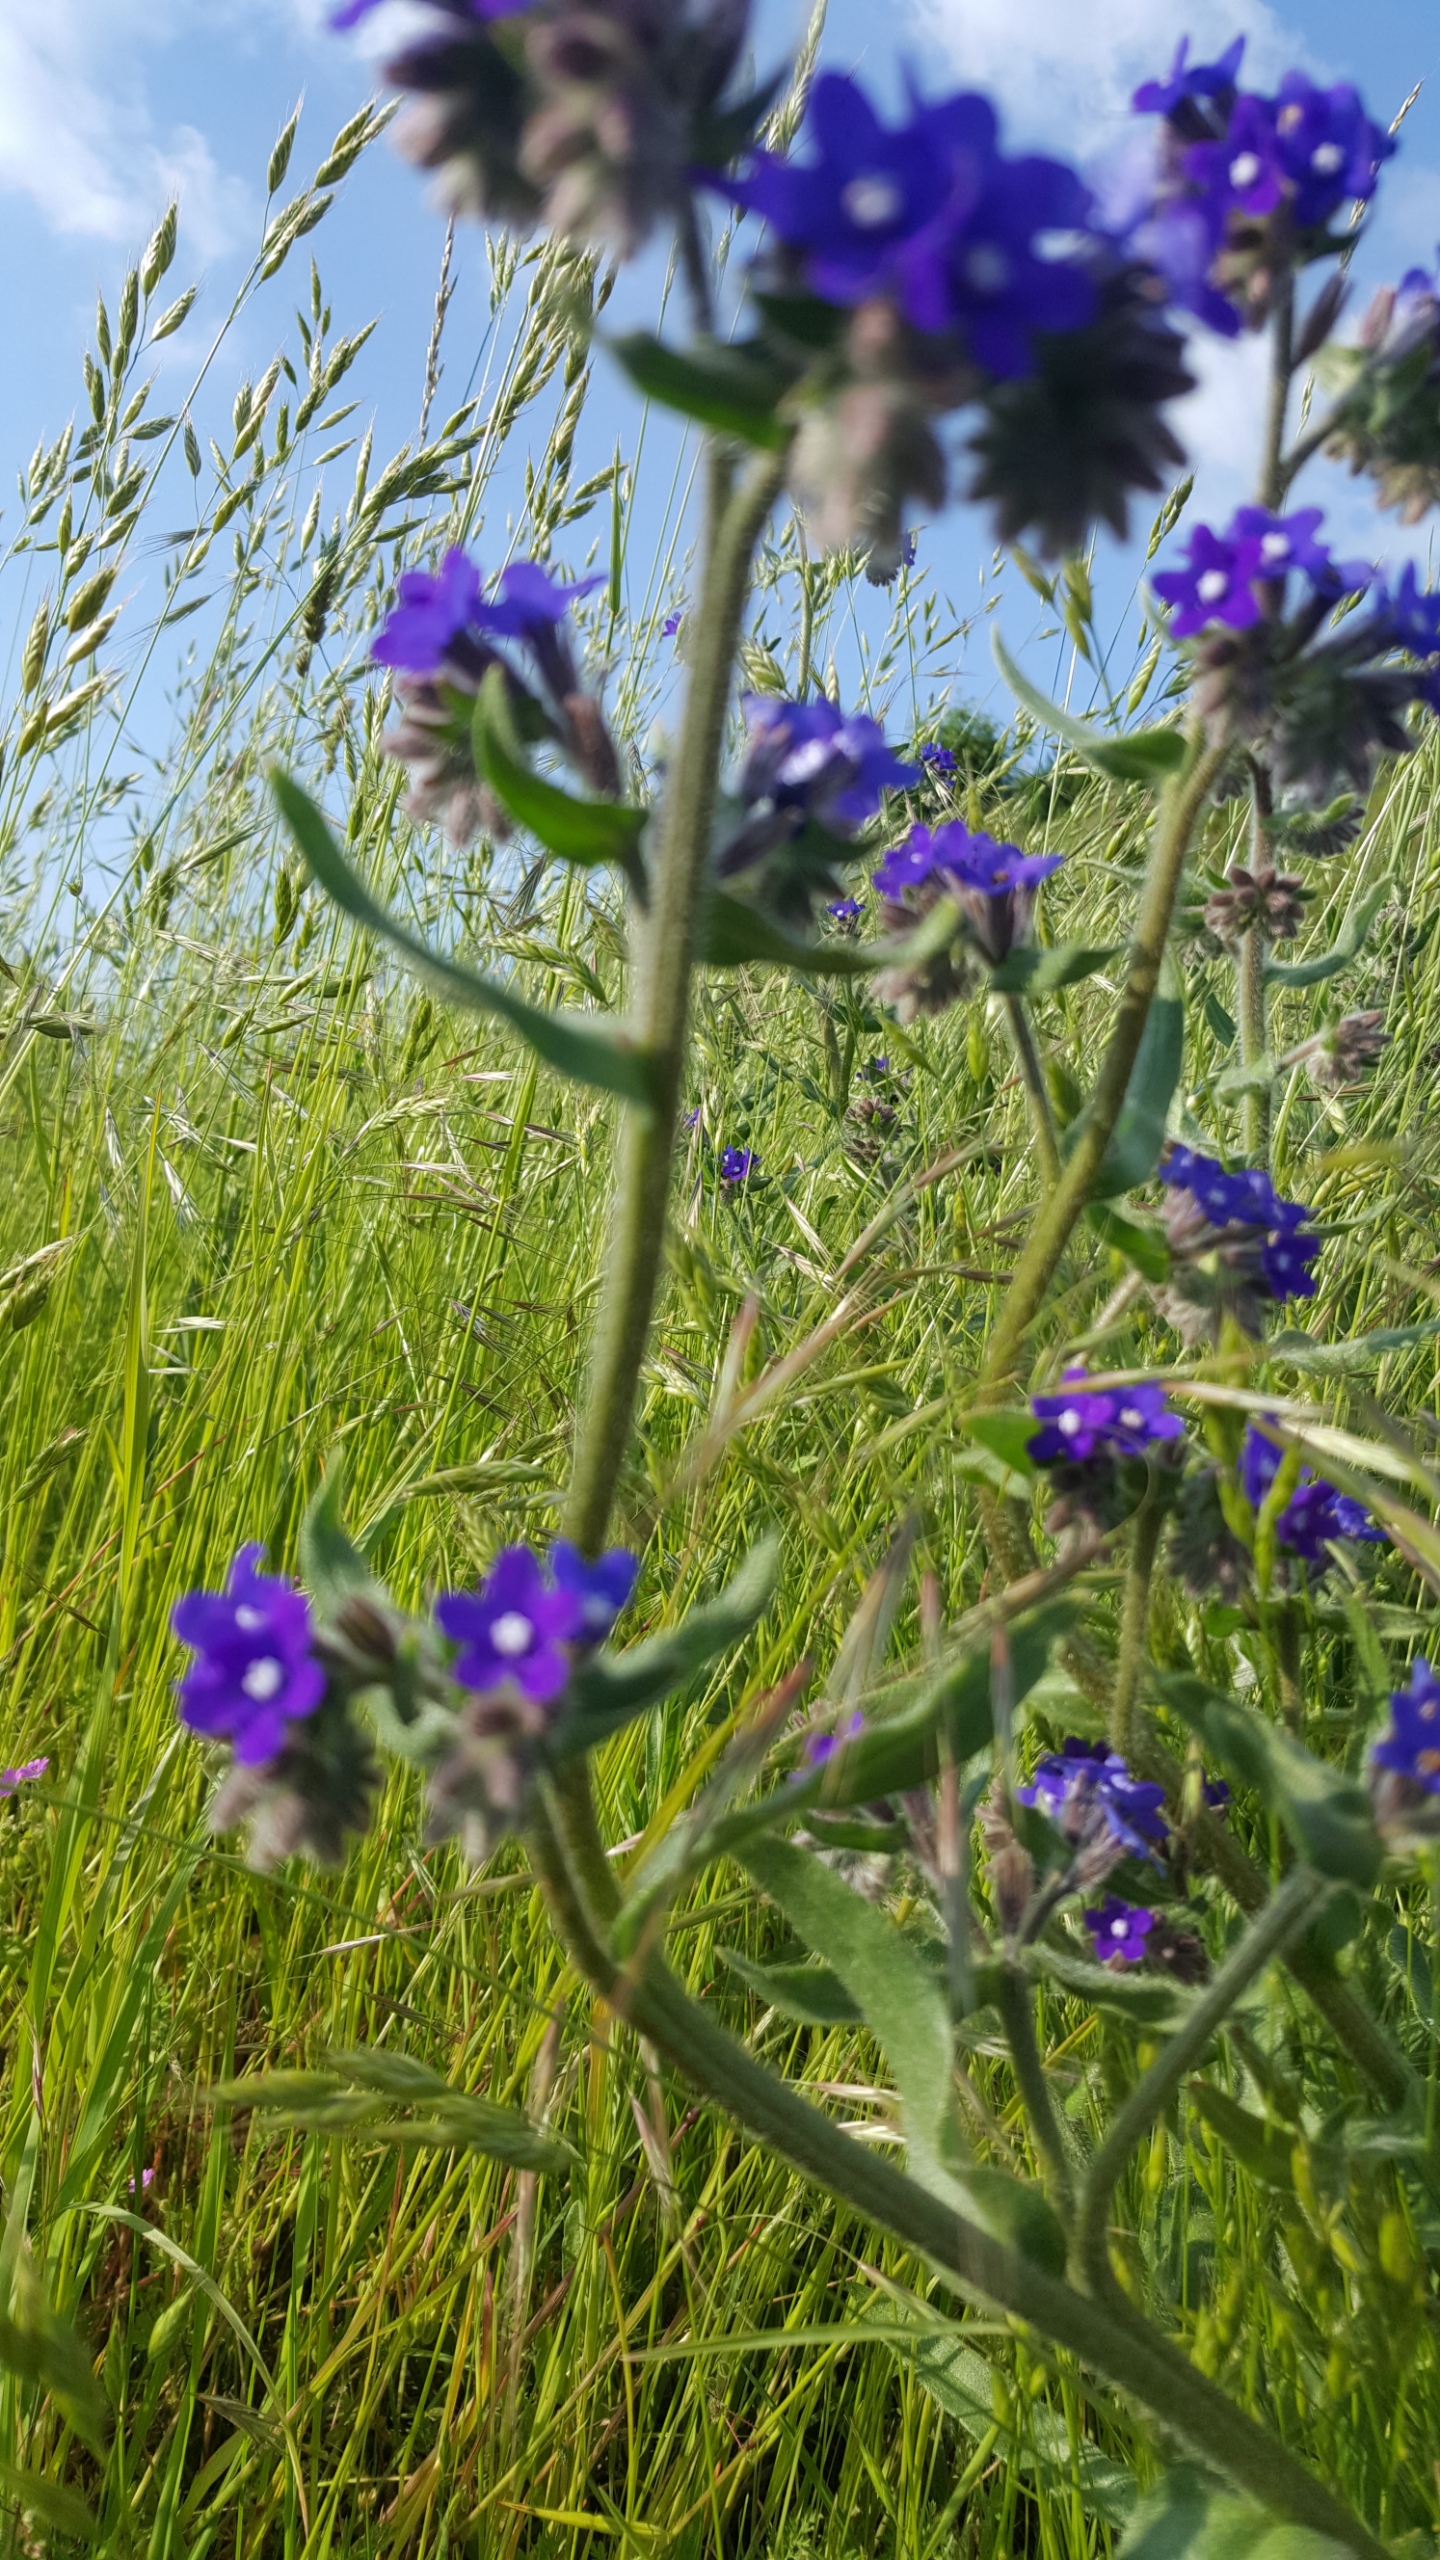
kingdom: Plantae
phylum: Tracheophyta
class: Magnoliopsida
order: Boraginales
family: Boraginaceae
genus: Anchusa
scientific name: Anchusa officinalis
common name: Læge-oksetunge
